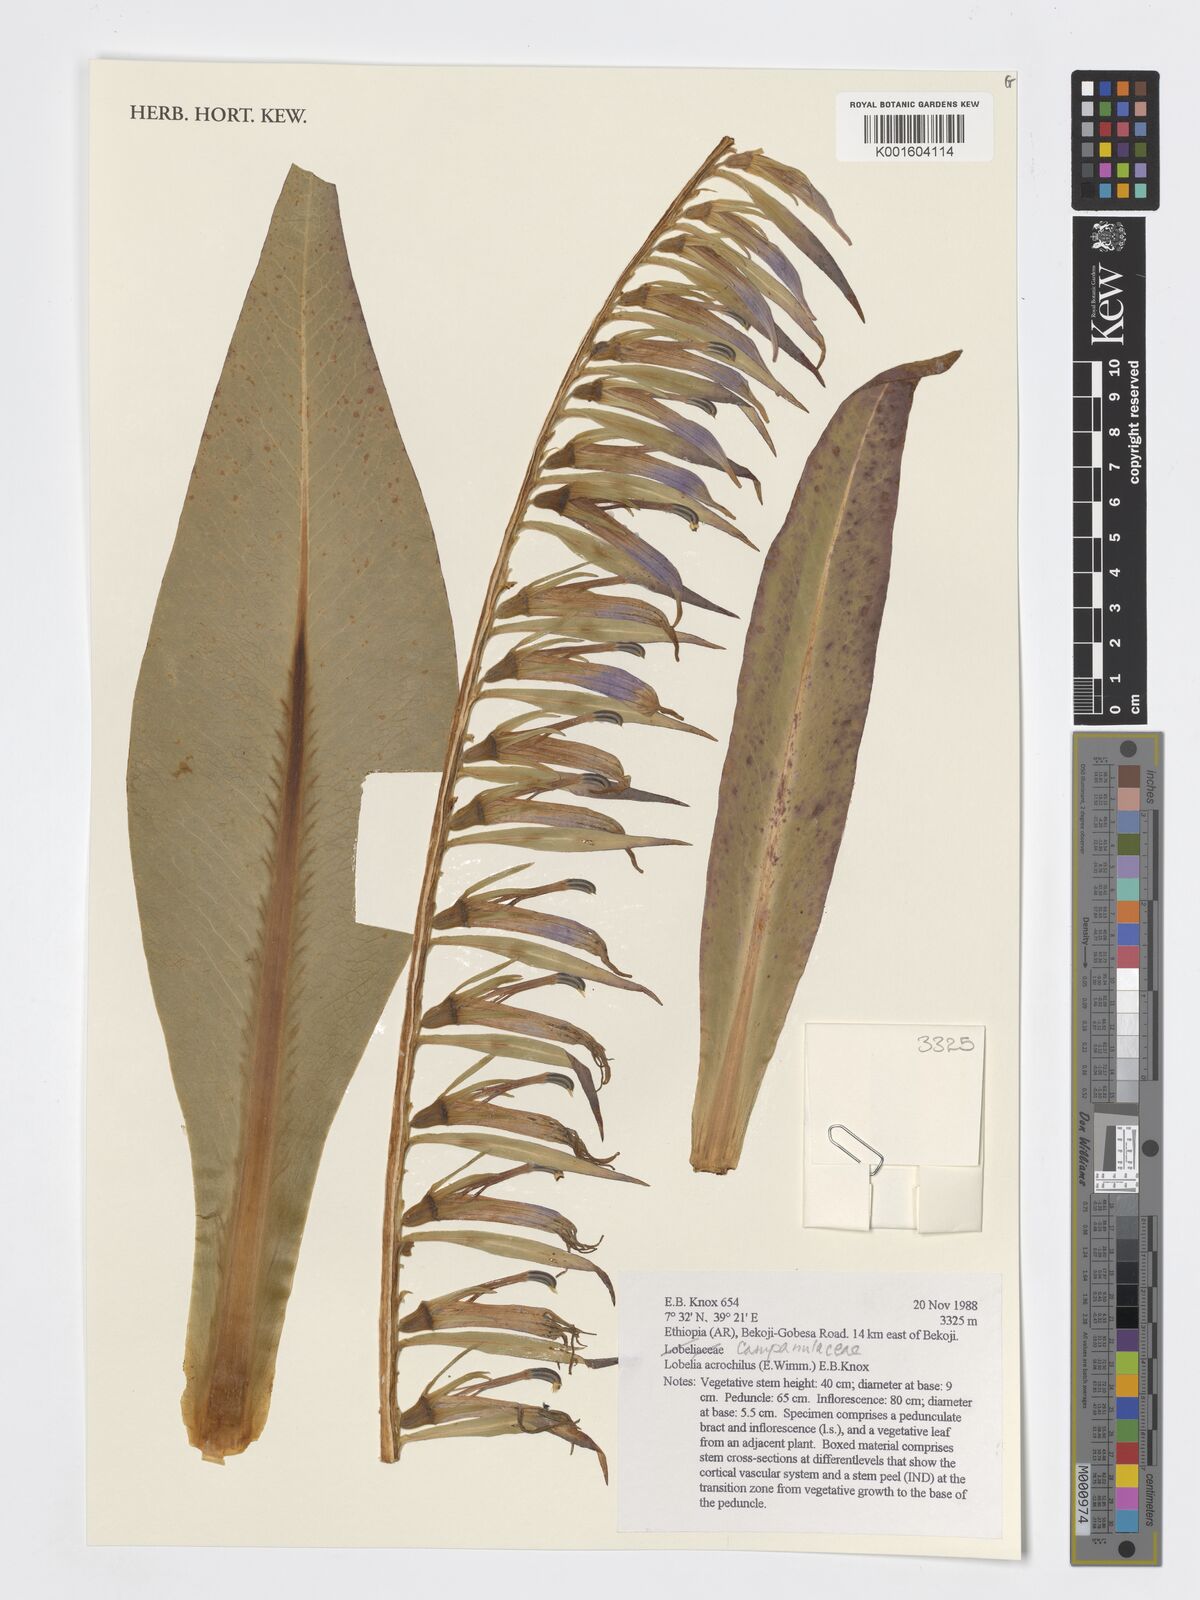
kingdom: Plantae
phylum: Tracheophyta
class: Magnoliopsida
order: Asterales
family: Campanulaceae
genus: Lobelia
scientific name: Lobelia acrochila
